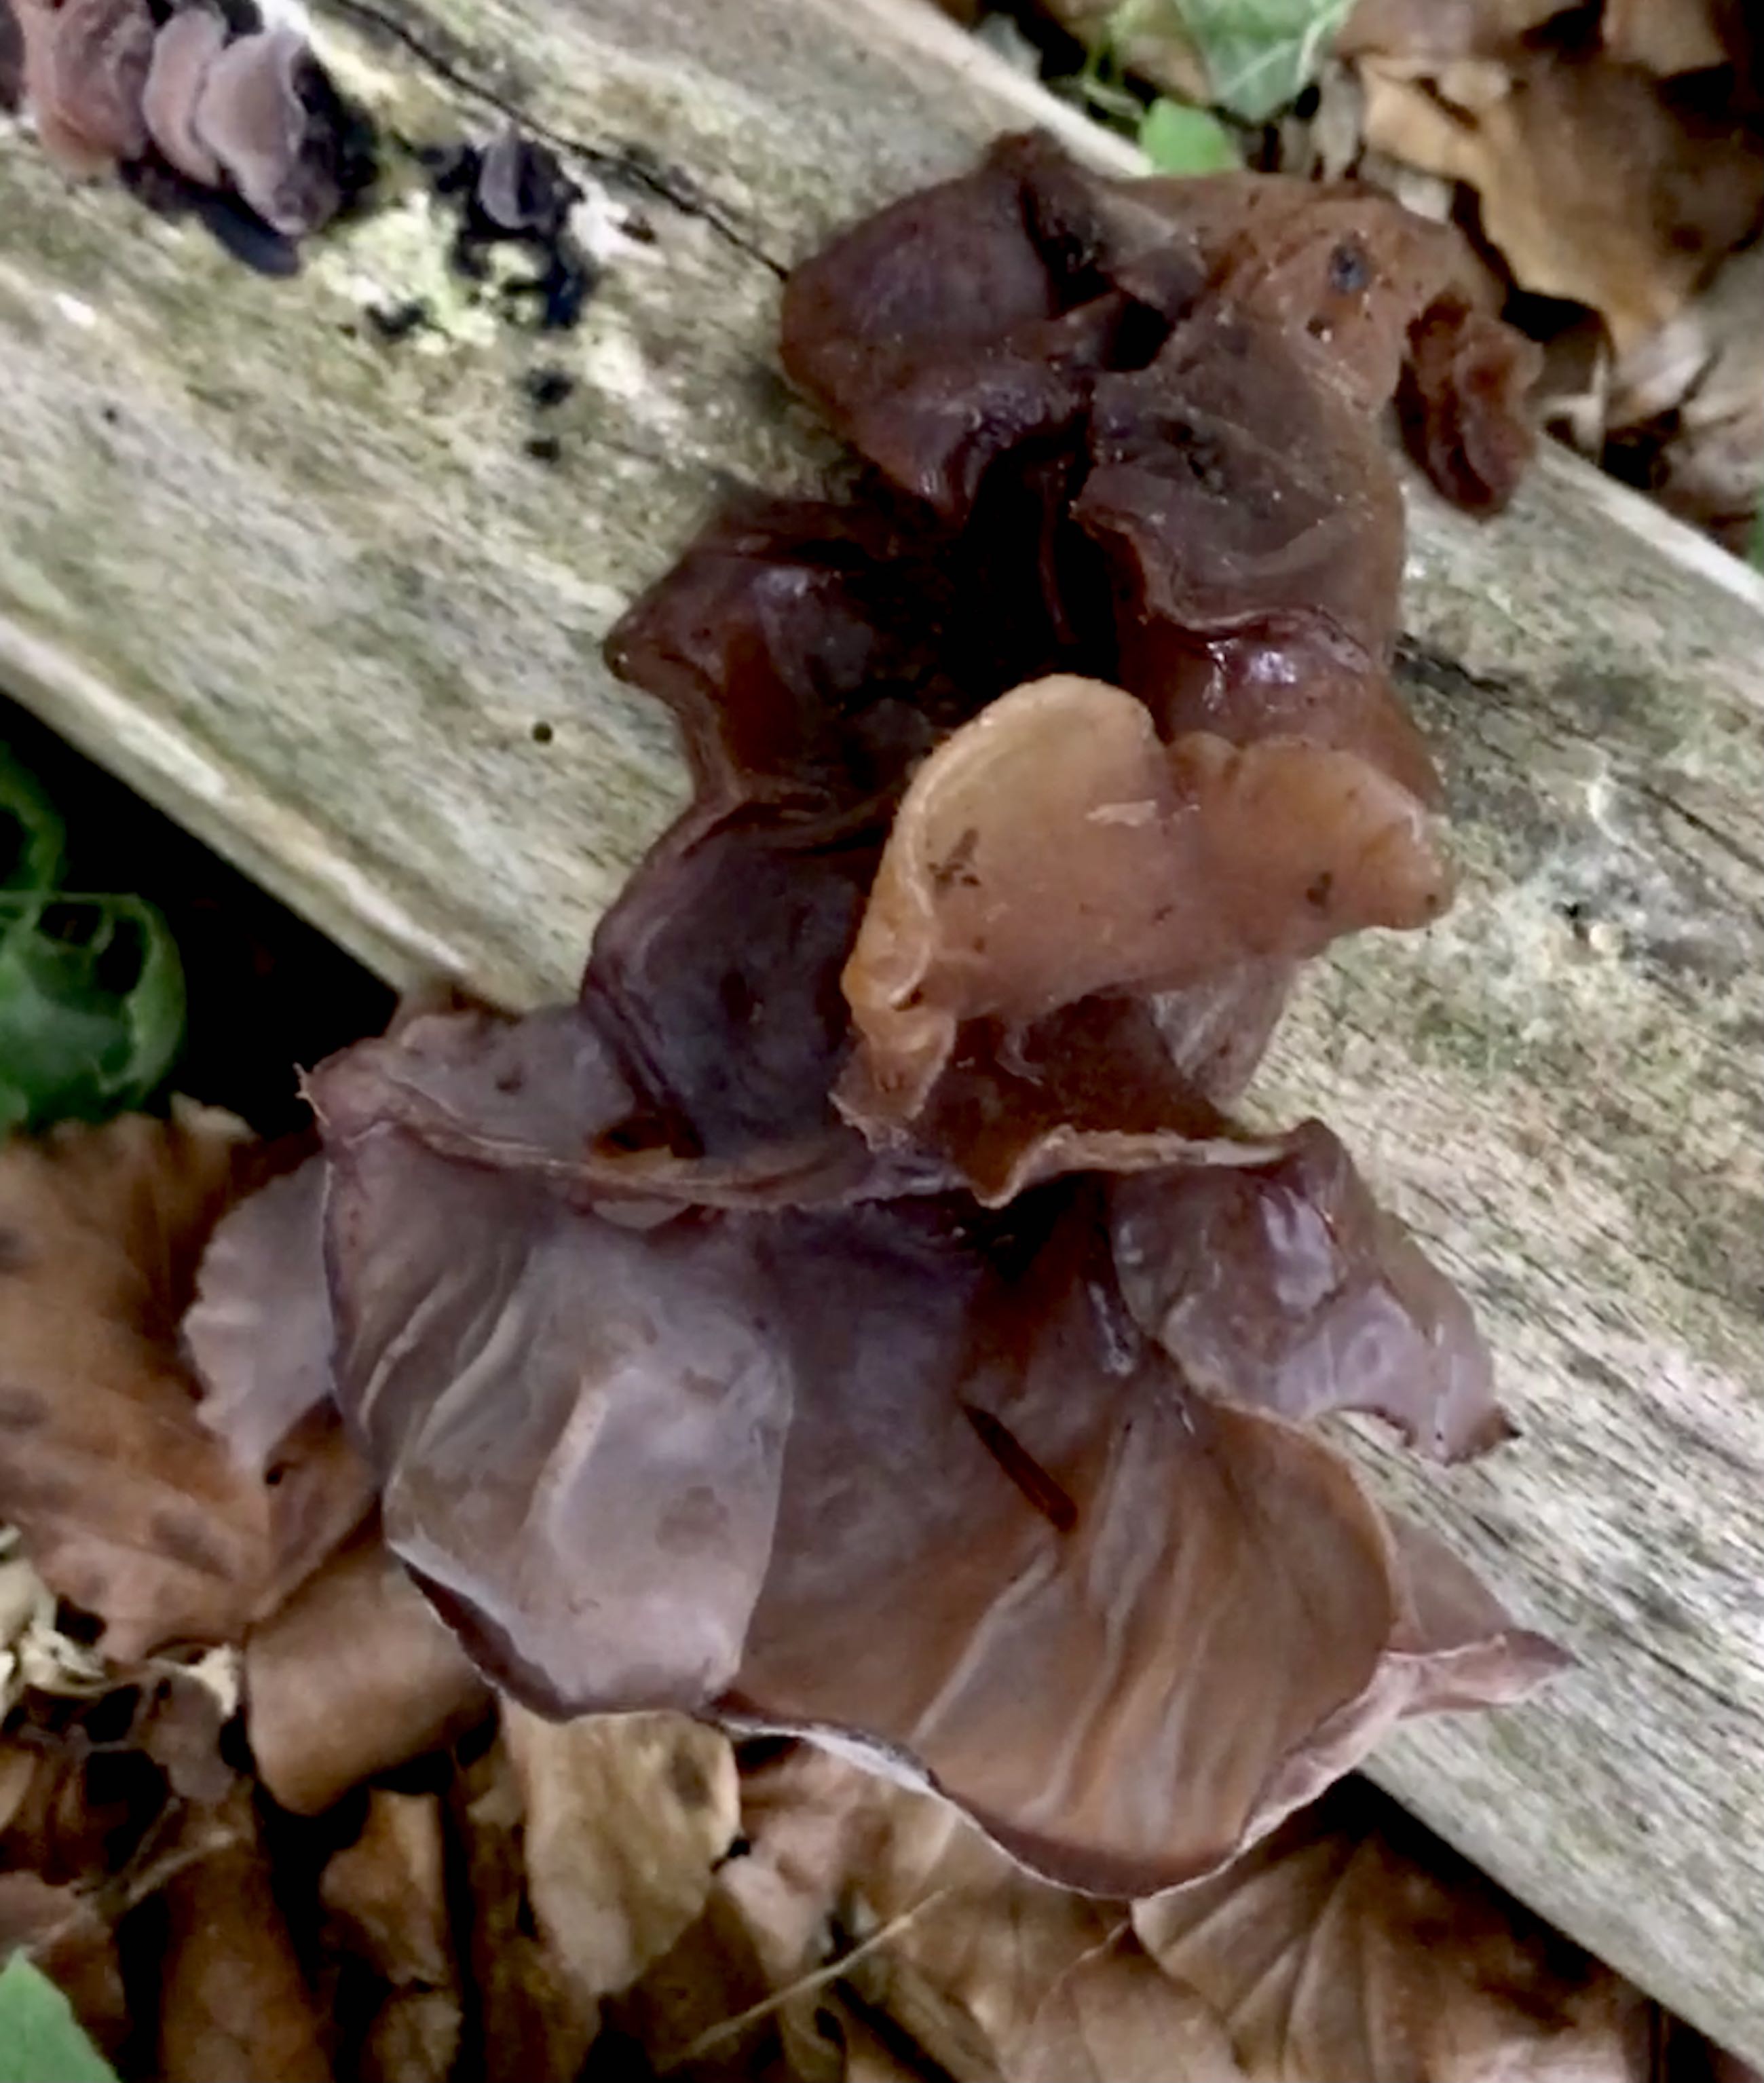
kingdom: Fungi
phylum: Basidiomycota
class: Agaricomycetes
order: Auriculariales
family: Auriculariaceae
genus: Auricularia
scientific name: Auricularia auricula-judae
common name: almindelig judasøre
